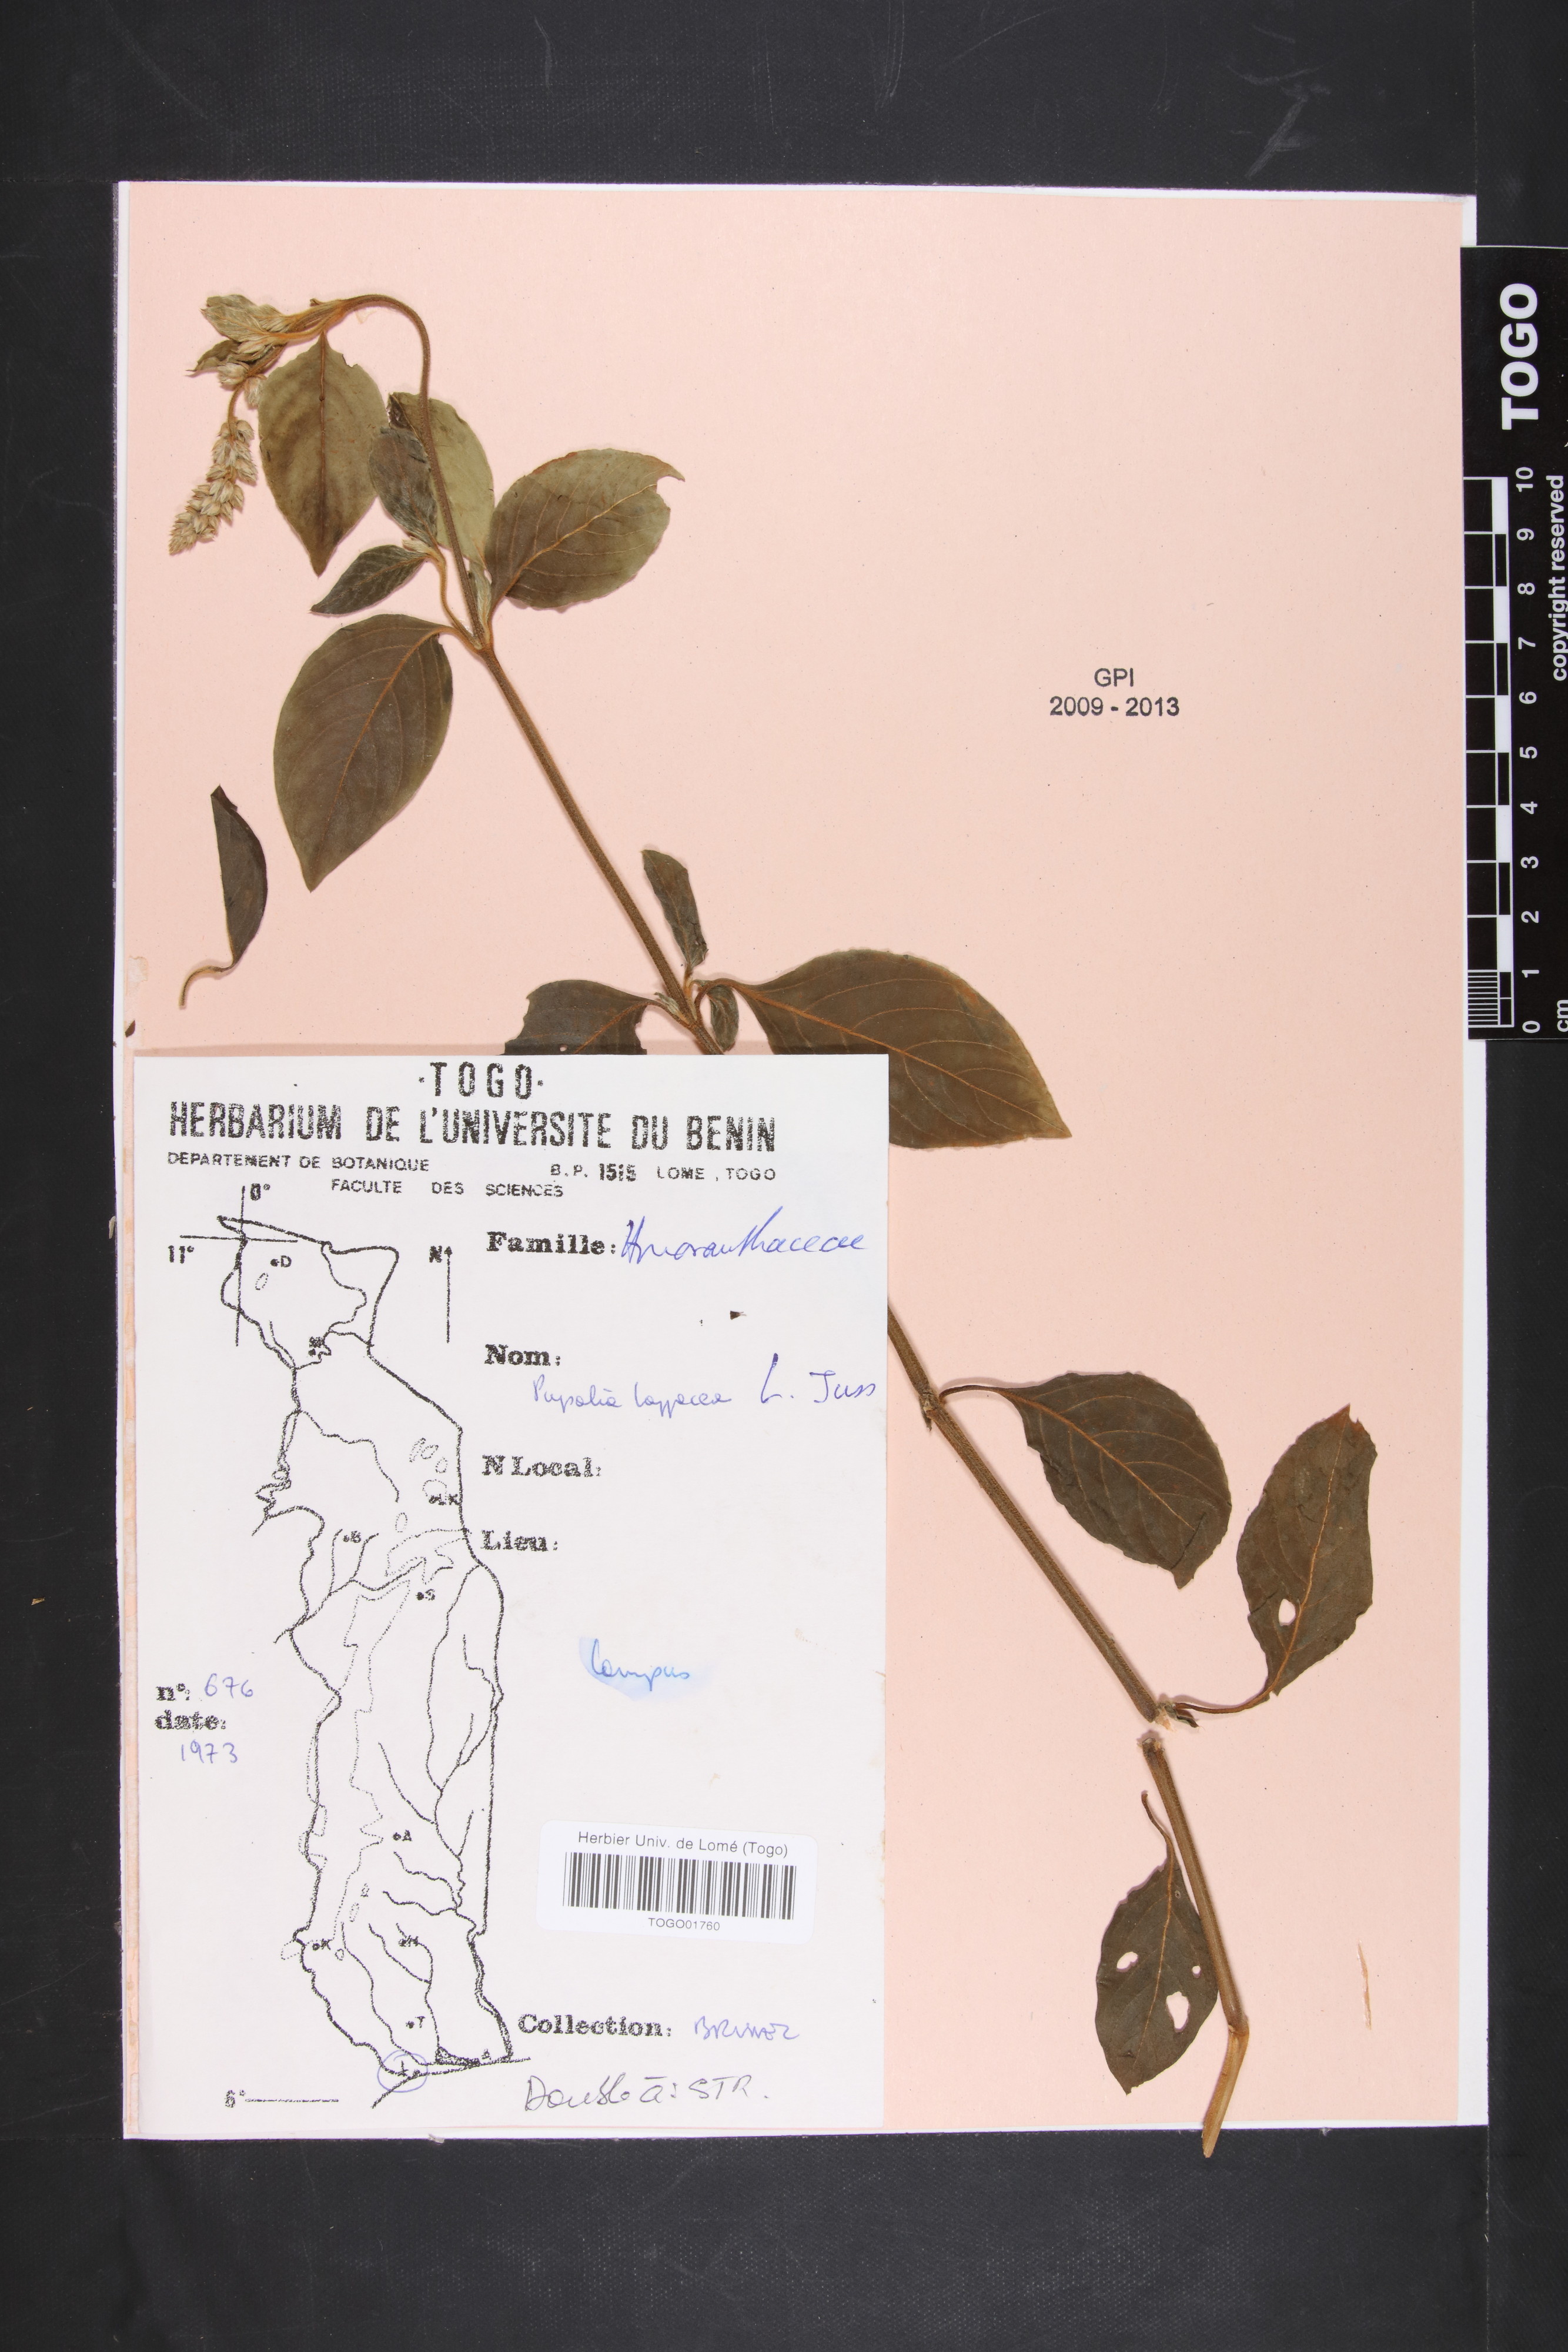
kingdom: Plantae
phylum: Tracheophyta
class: Magnoliopsida
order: Caryophyllales
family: Amaranthaceae
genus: Pupalia
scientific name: Pupalia lappacea
